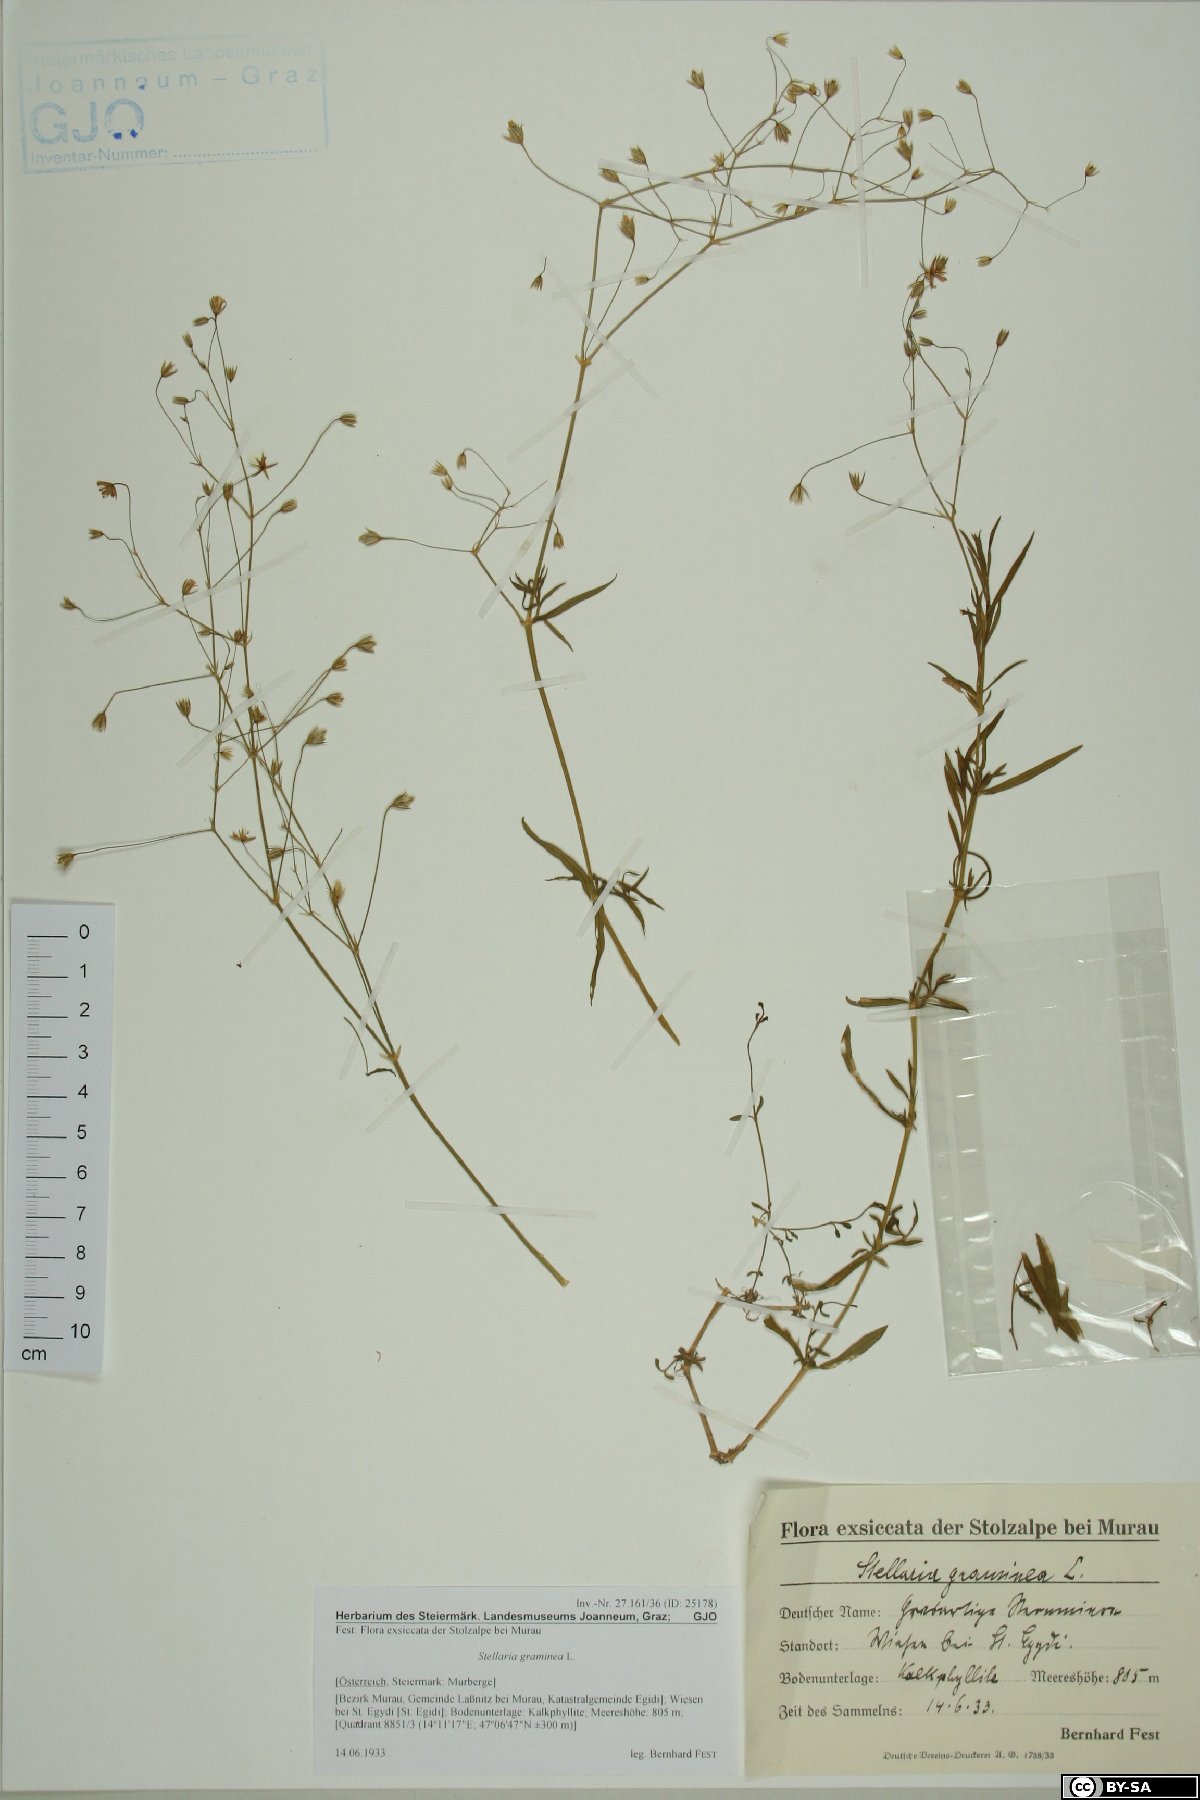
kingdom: Plantae
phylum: Tracheophyta
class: Magnoliopsida
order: Caryophyllales
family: Caryophyllaceae
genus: Stellaria
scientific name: Stellaria graminea
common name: Grass-like starwort
